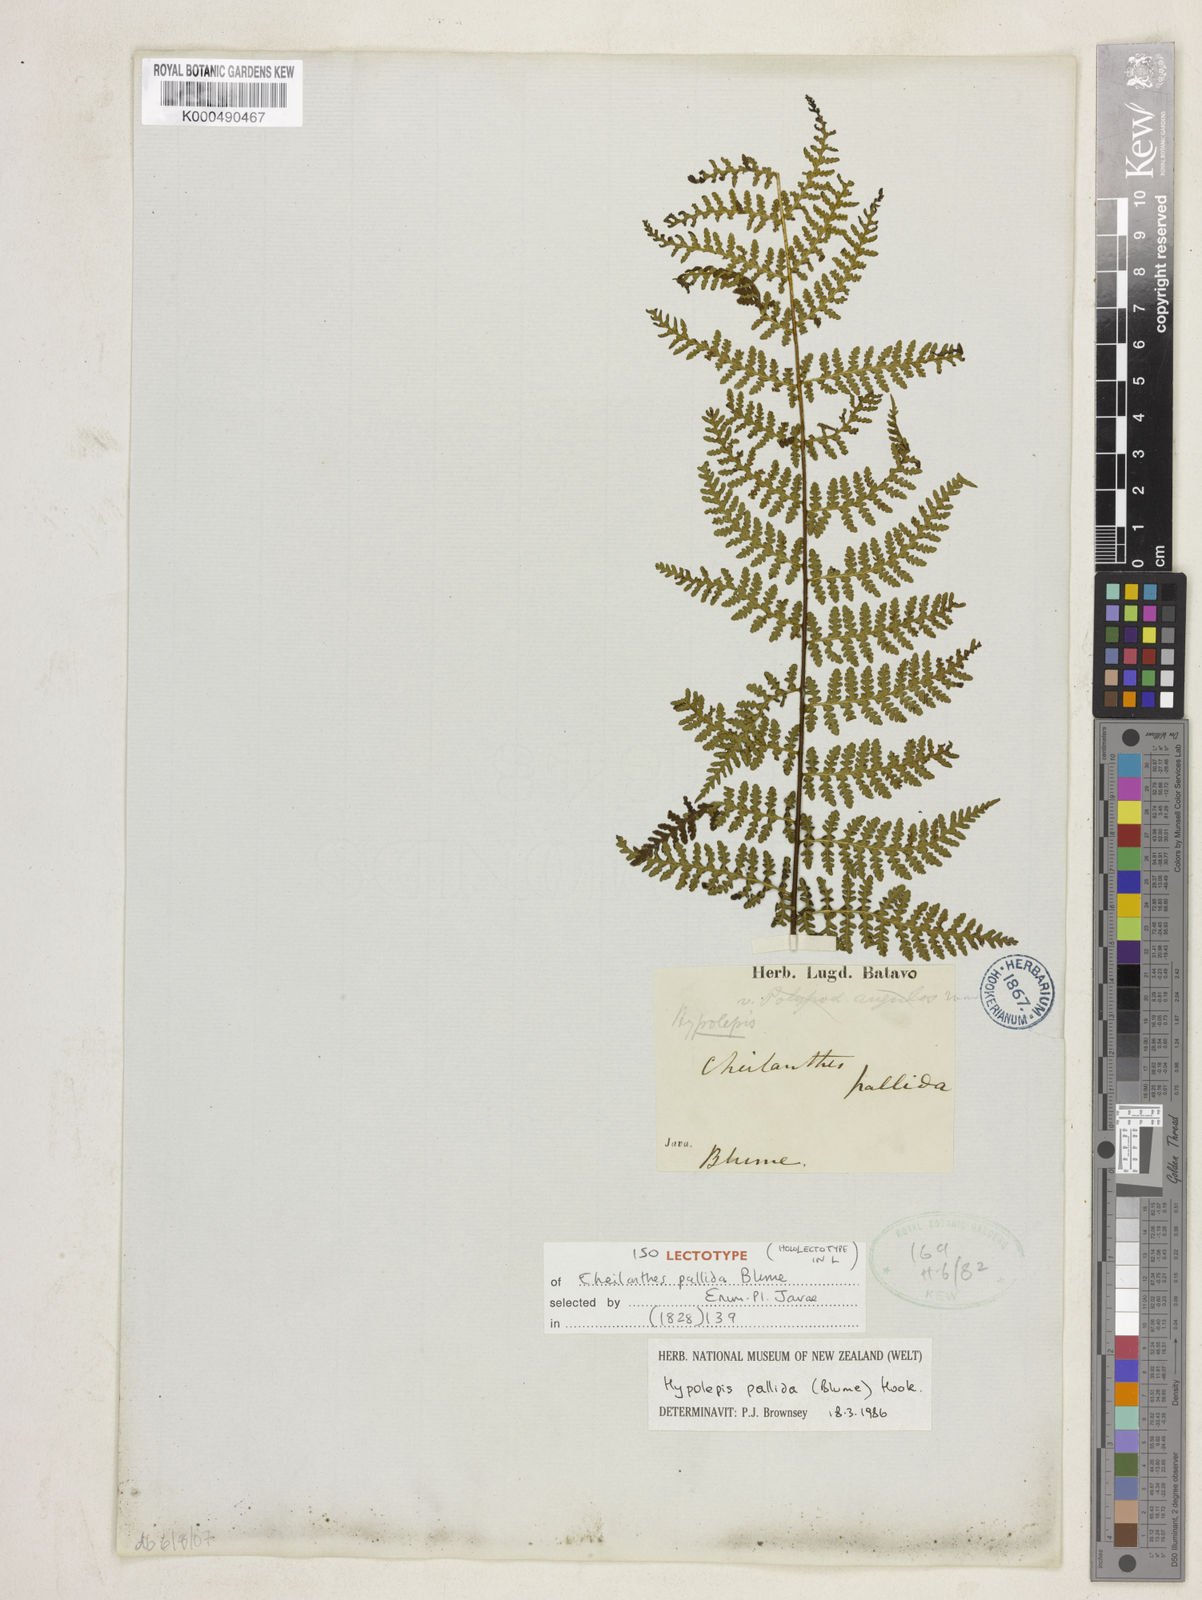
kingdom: Plantae
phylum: Tracheophyta
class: Polypodiopsida
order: Polypodiales
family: Dennstaedtiaceae
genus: Hypolepis
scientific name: Hypolepis pallida
